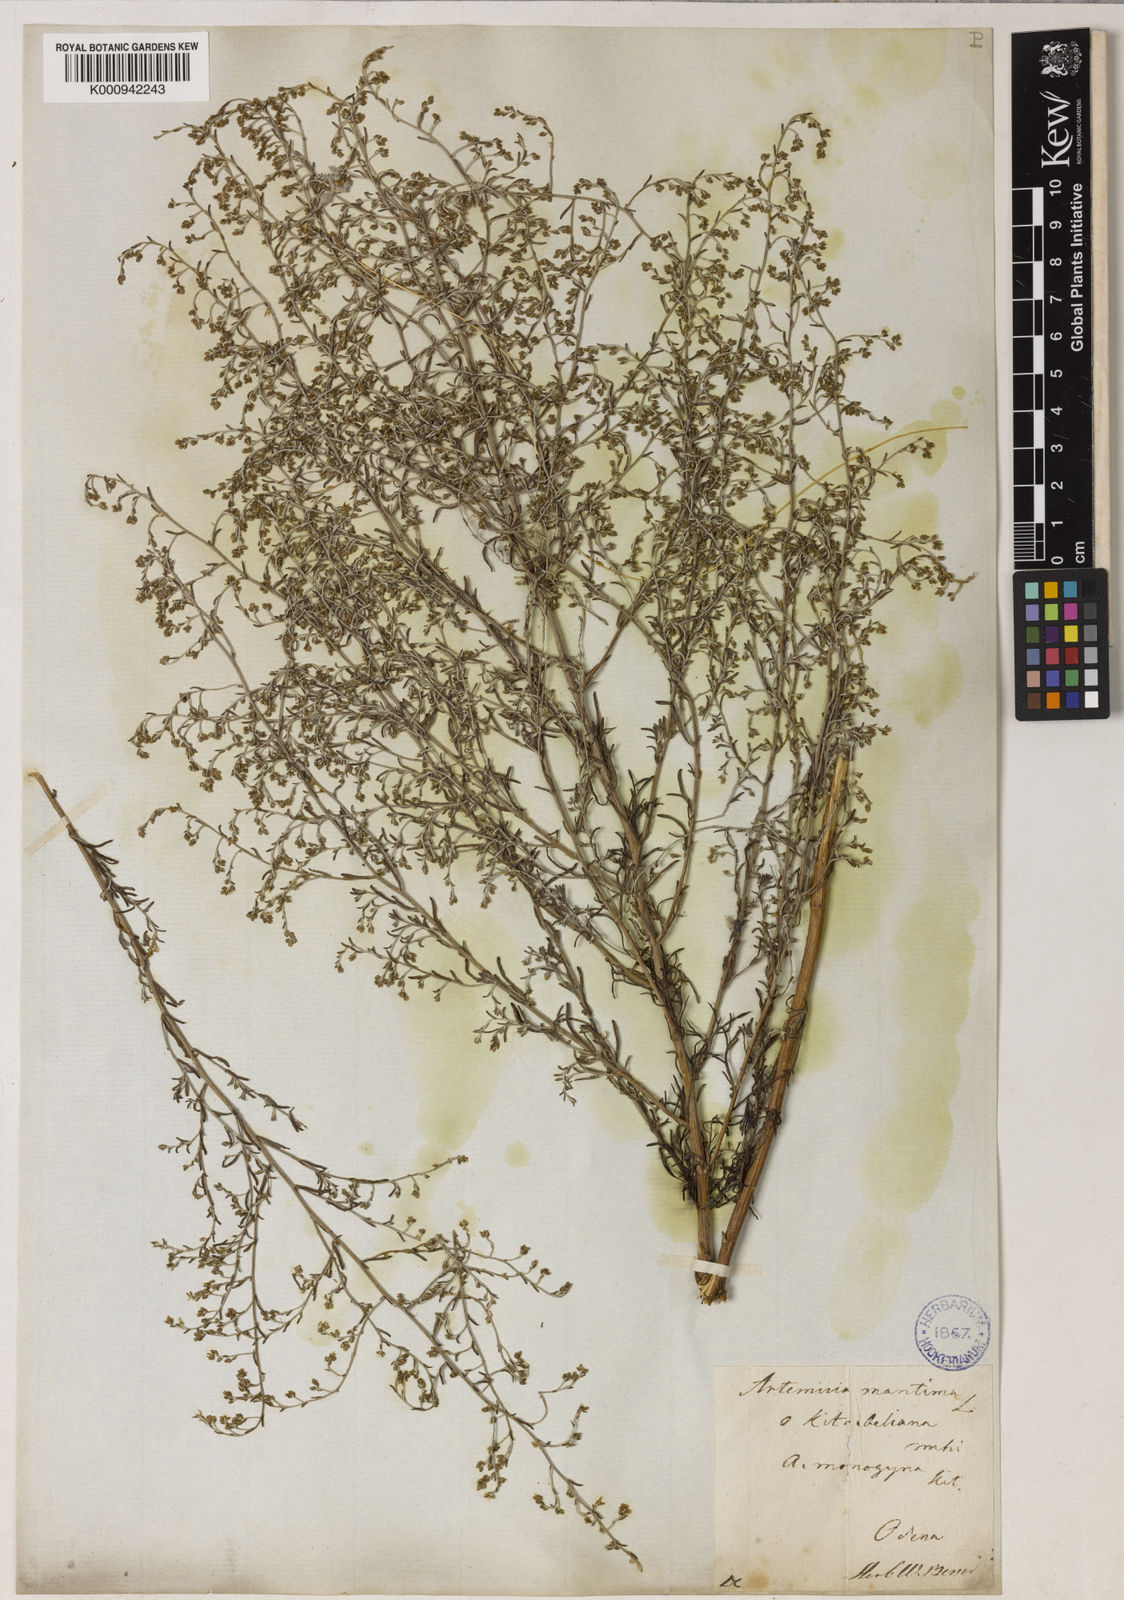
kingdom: Plantae
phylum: Tracheophyta
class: Magnoliopsida
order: Asterales
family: Asteraceae
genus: Seriphidium
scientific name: Seriphidium
